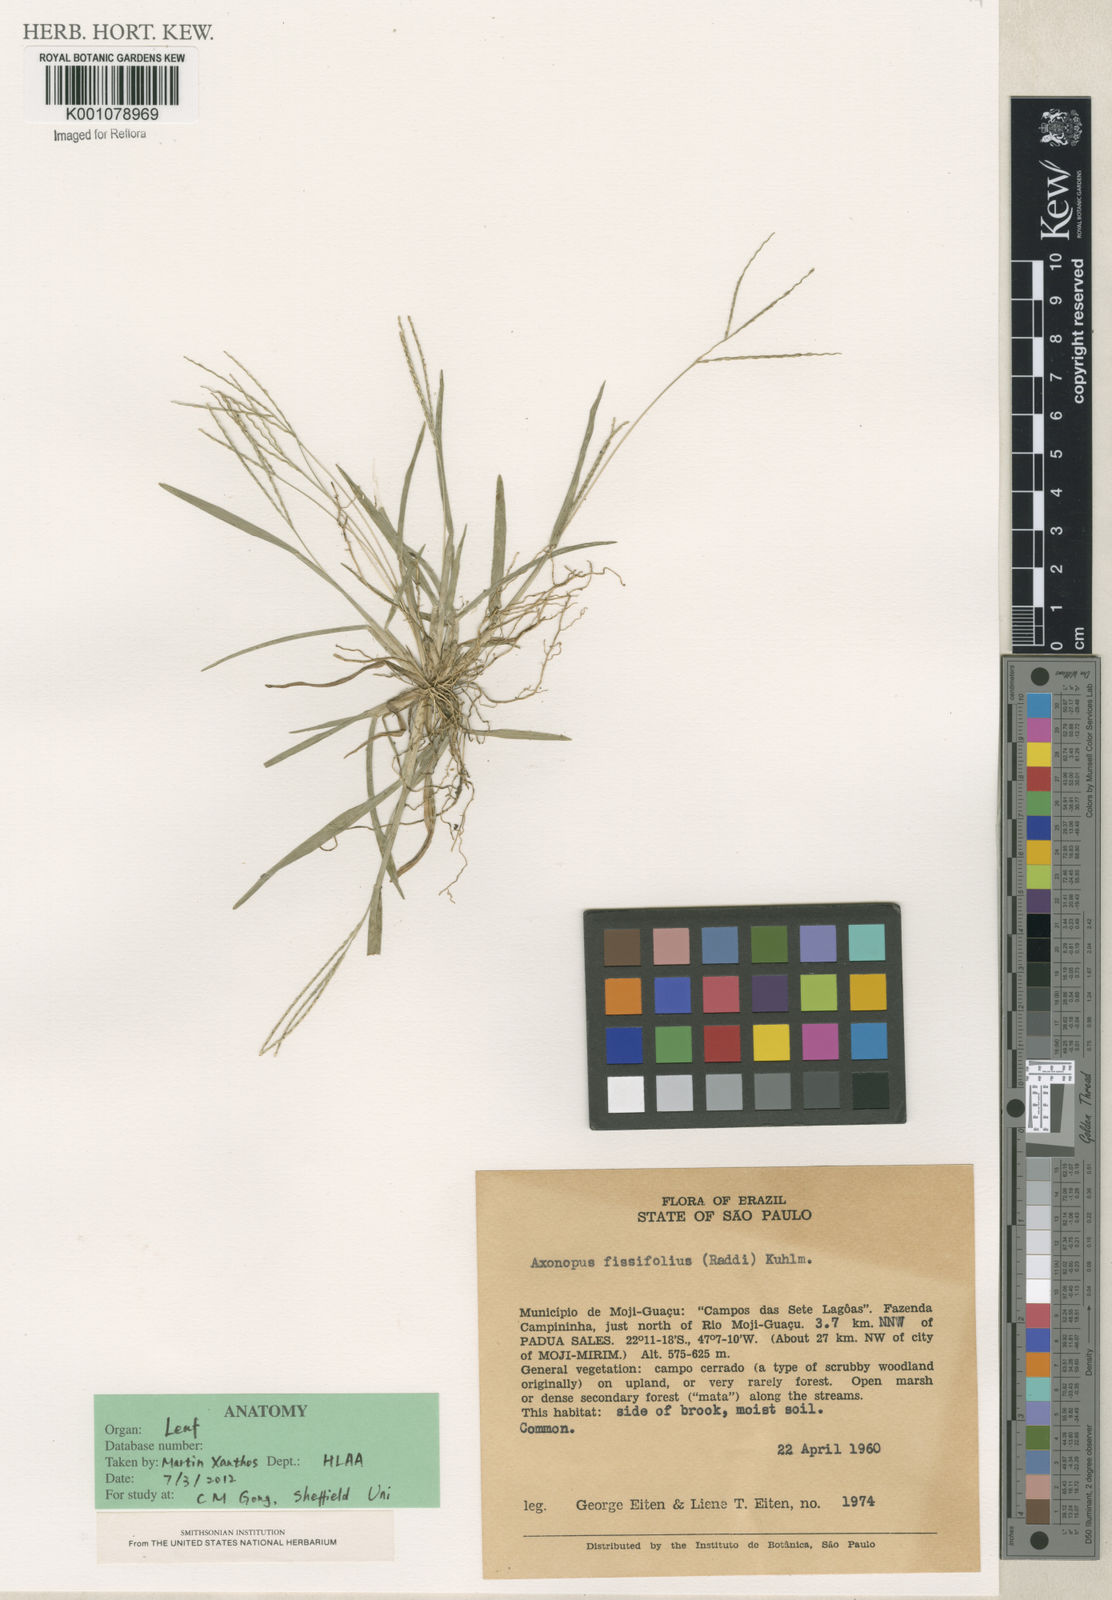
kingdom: Plantae
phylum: Tracheophyta
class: Liliopsida
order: Poales
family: Poaceae
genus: Axonopus
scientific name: Axonopus fissifolius
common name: Common carpetgrass
